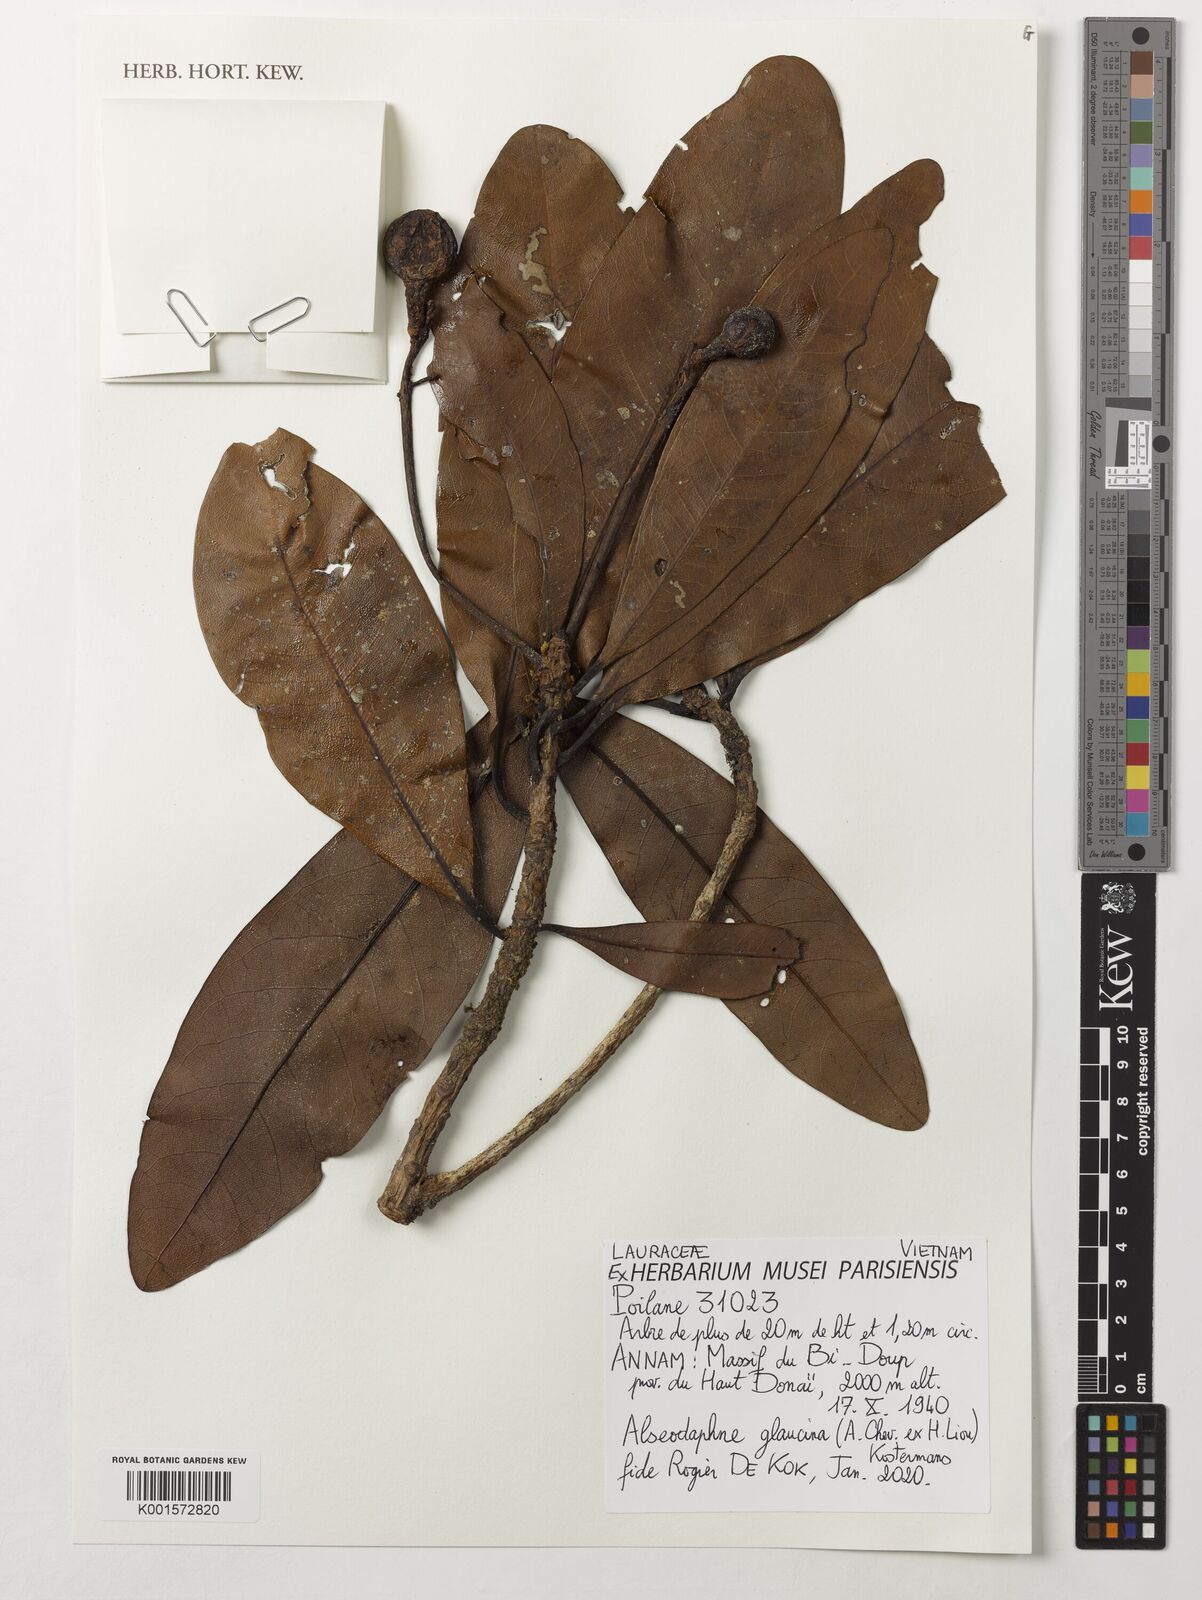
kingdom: Plantae
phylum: Tracheophyta
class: Magnoliopsida
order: Laurales
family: Lauraceae
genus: Alseodaphne
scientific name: Alseodaphne glaucina
